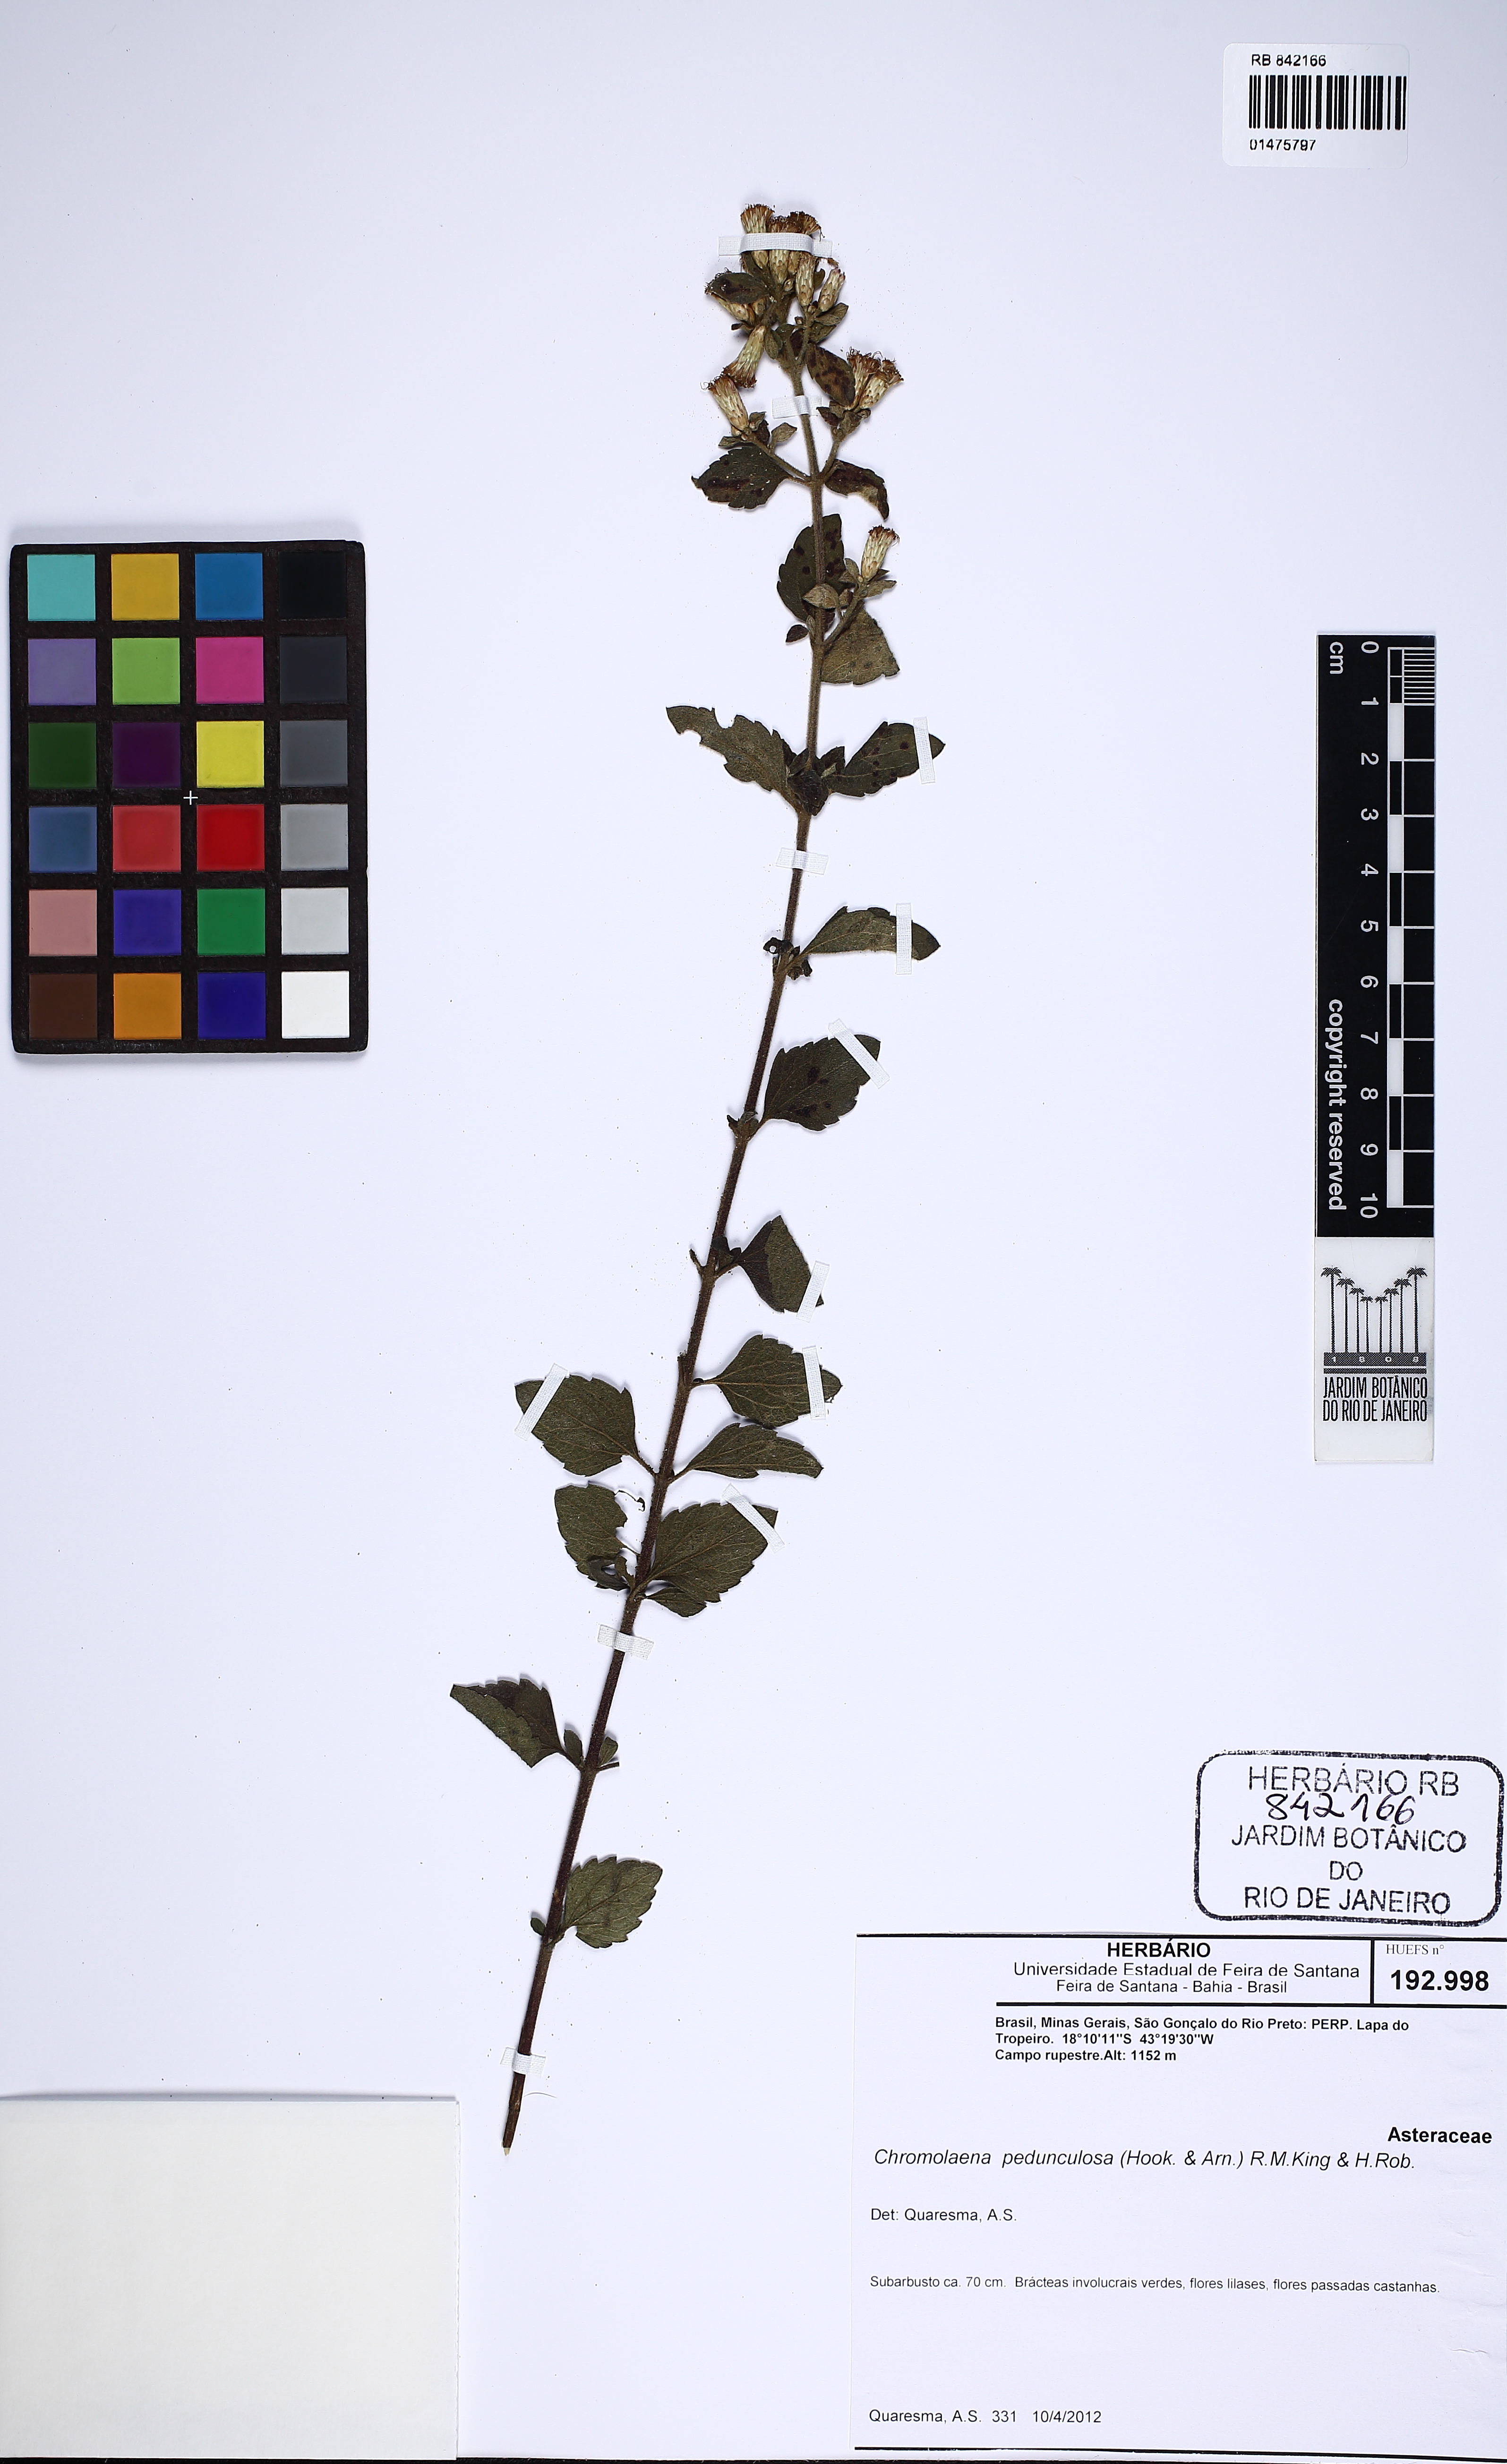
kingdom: Plantae
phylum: Tracheophyta
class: Magnoliopsida
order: Asterales
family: Asteraceae
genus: Chromolaena
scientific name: Chromolaena pedunculosa
